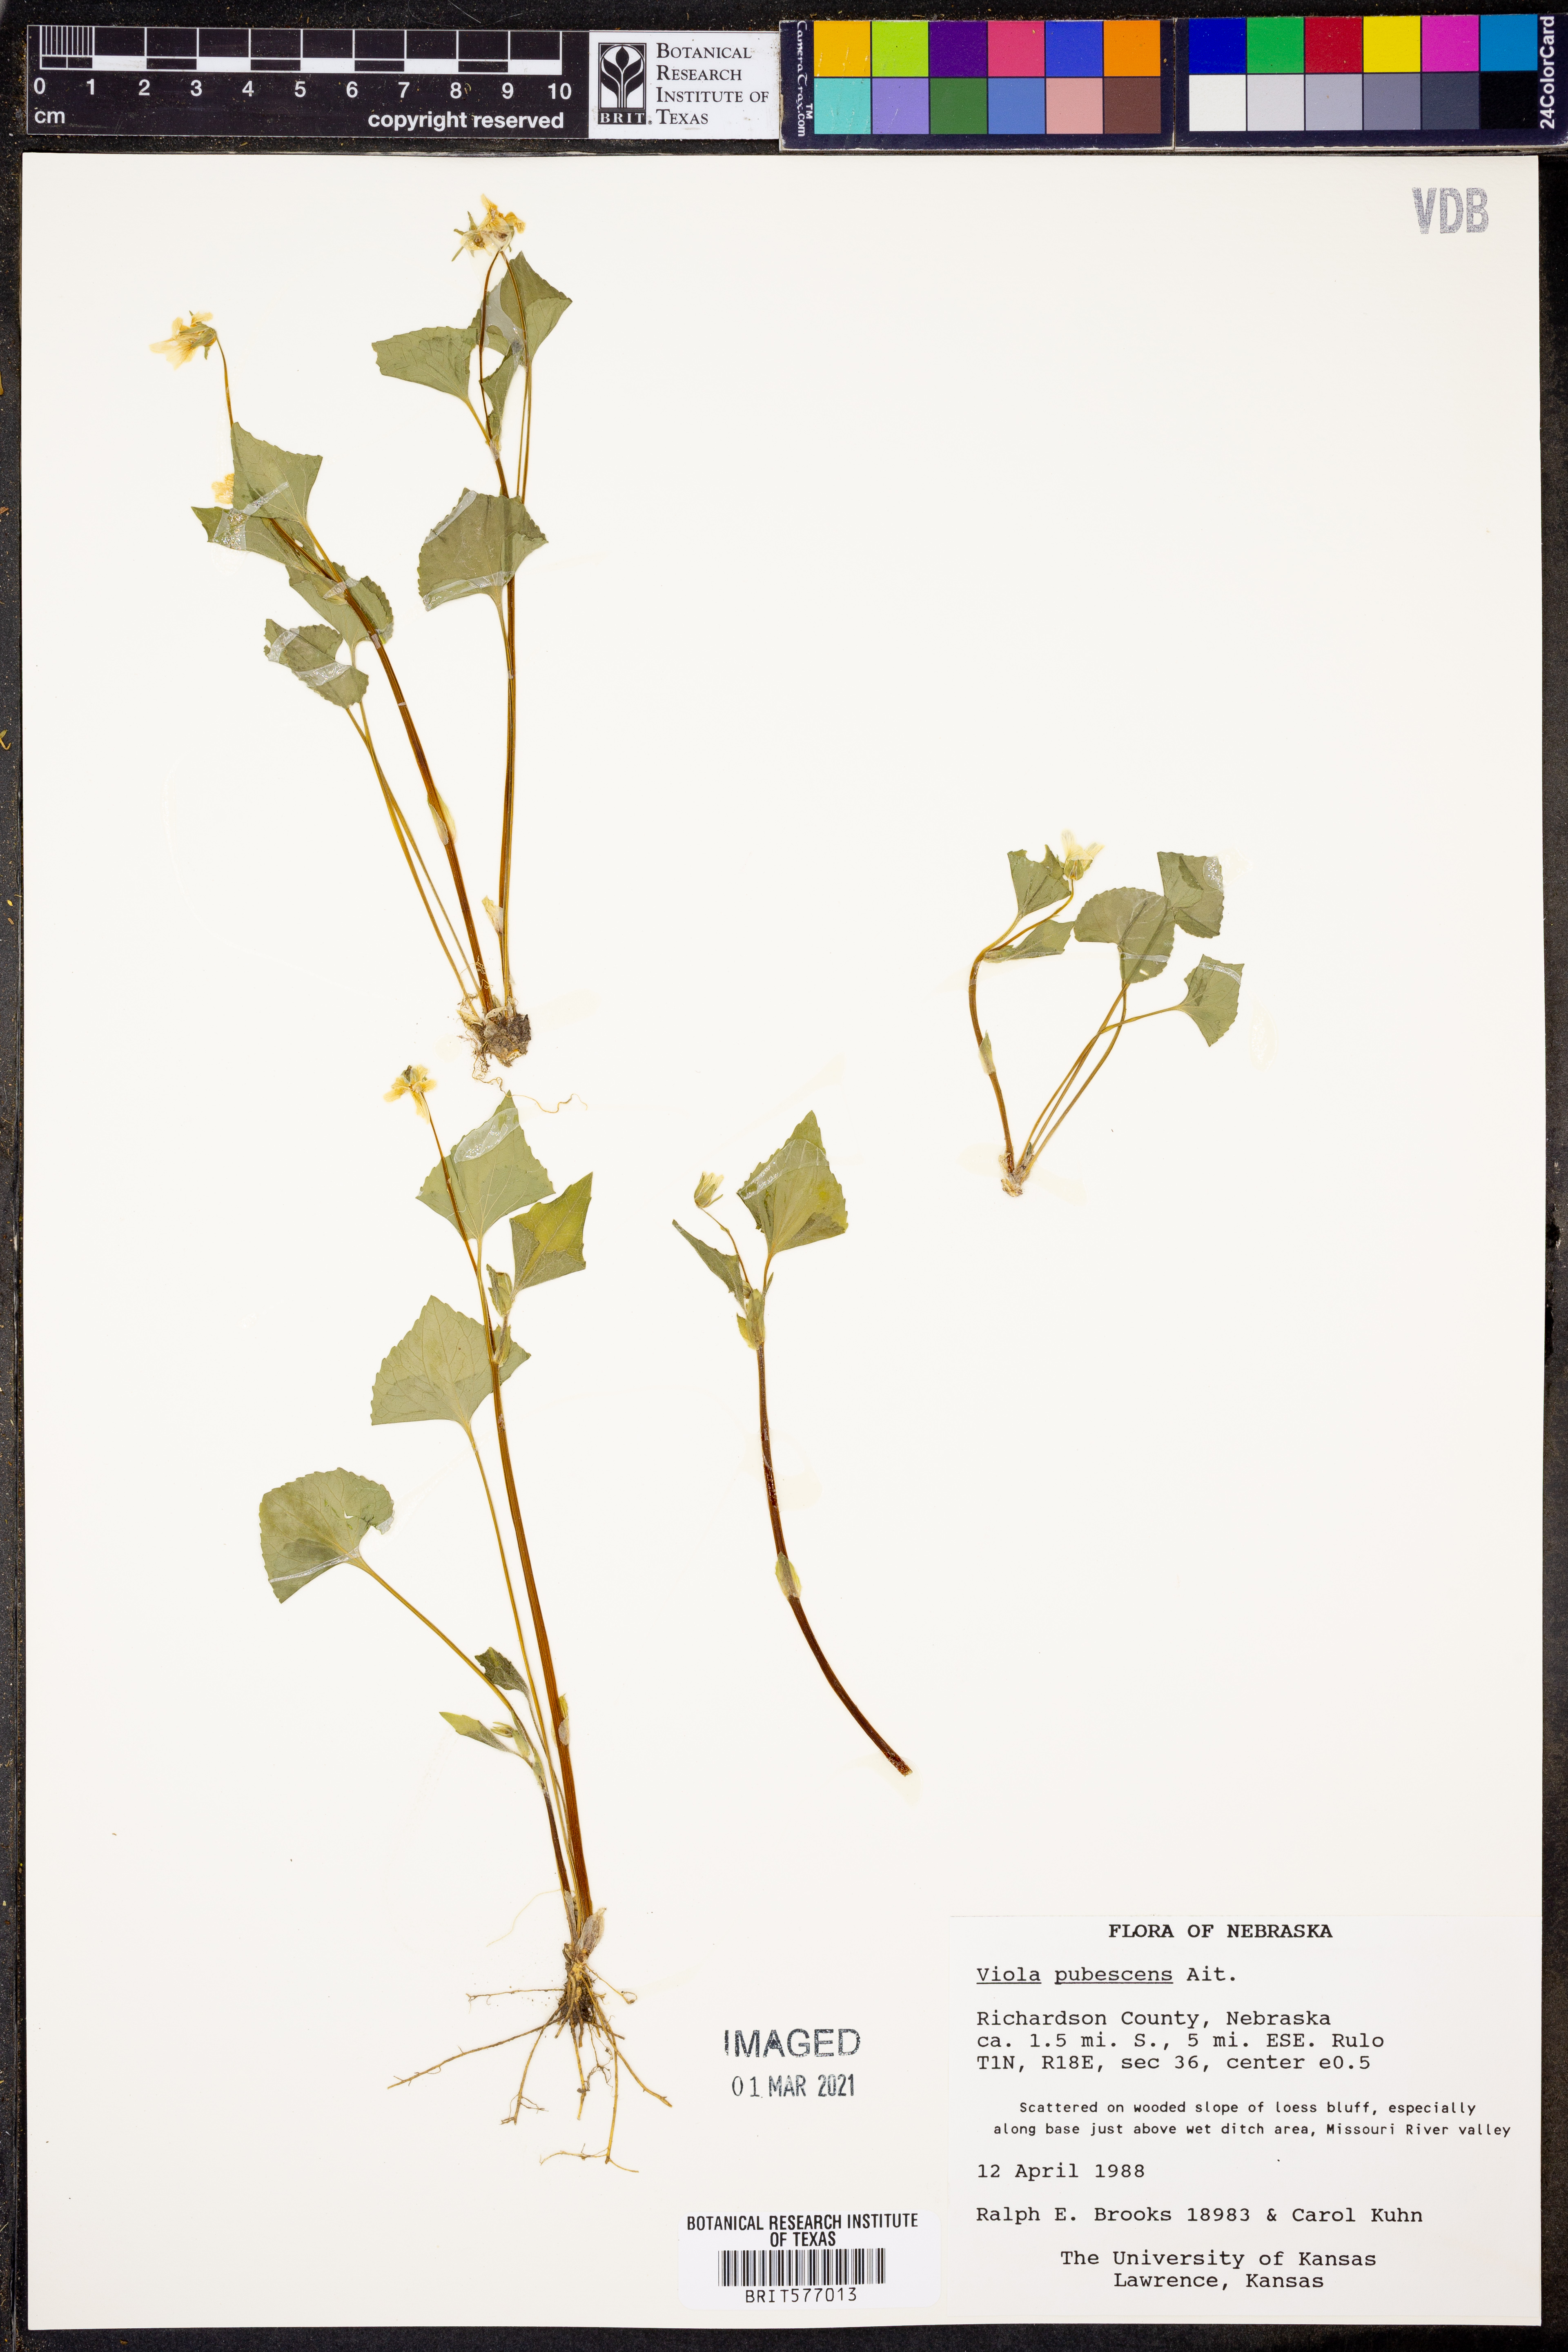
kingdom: Plantae
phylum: Tracheophyta
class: Magnoliopsida
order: Malpighiales
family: Violaceae
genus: Viola
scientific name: Viola pubescens
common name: Yellow forest violet
